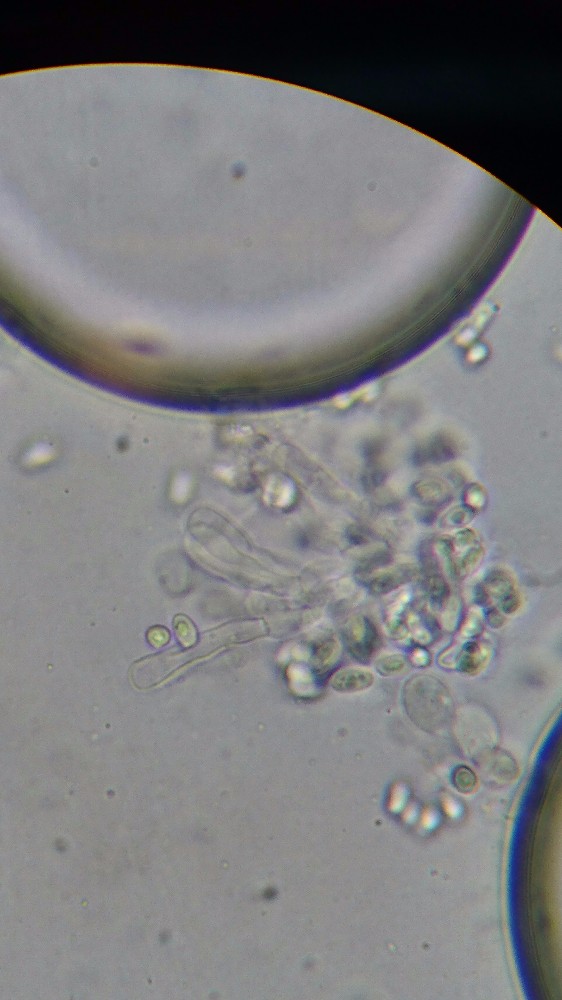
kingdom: Fungi
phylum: Basidiomycota
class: Agaricomycetes
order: Agaricales
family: Agaricaceae
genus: Lepiota
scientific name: Lepiota subincarnata
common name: kødfarvet parasolhat
